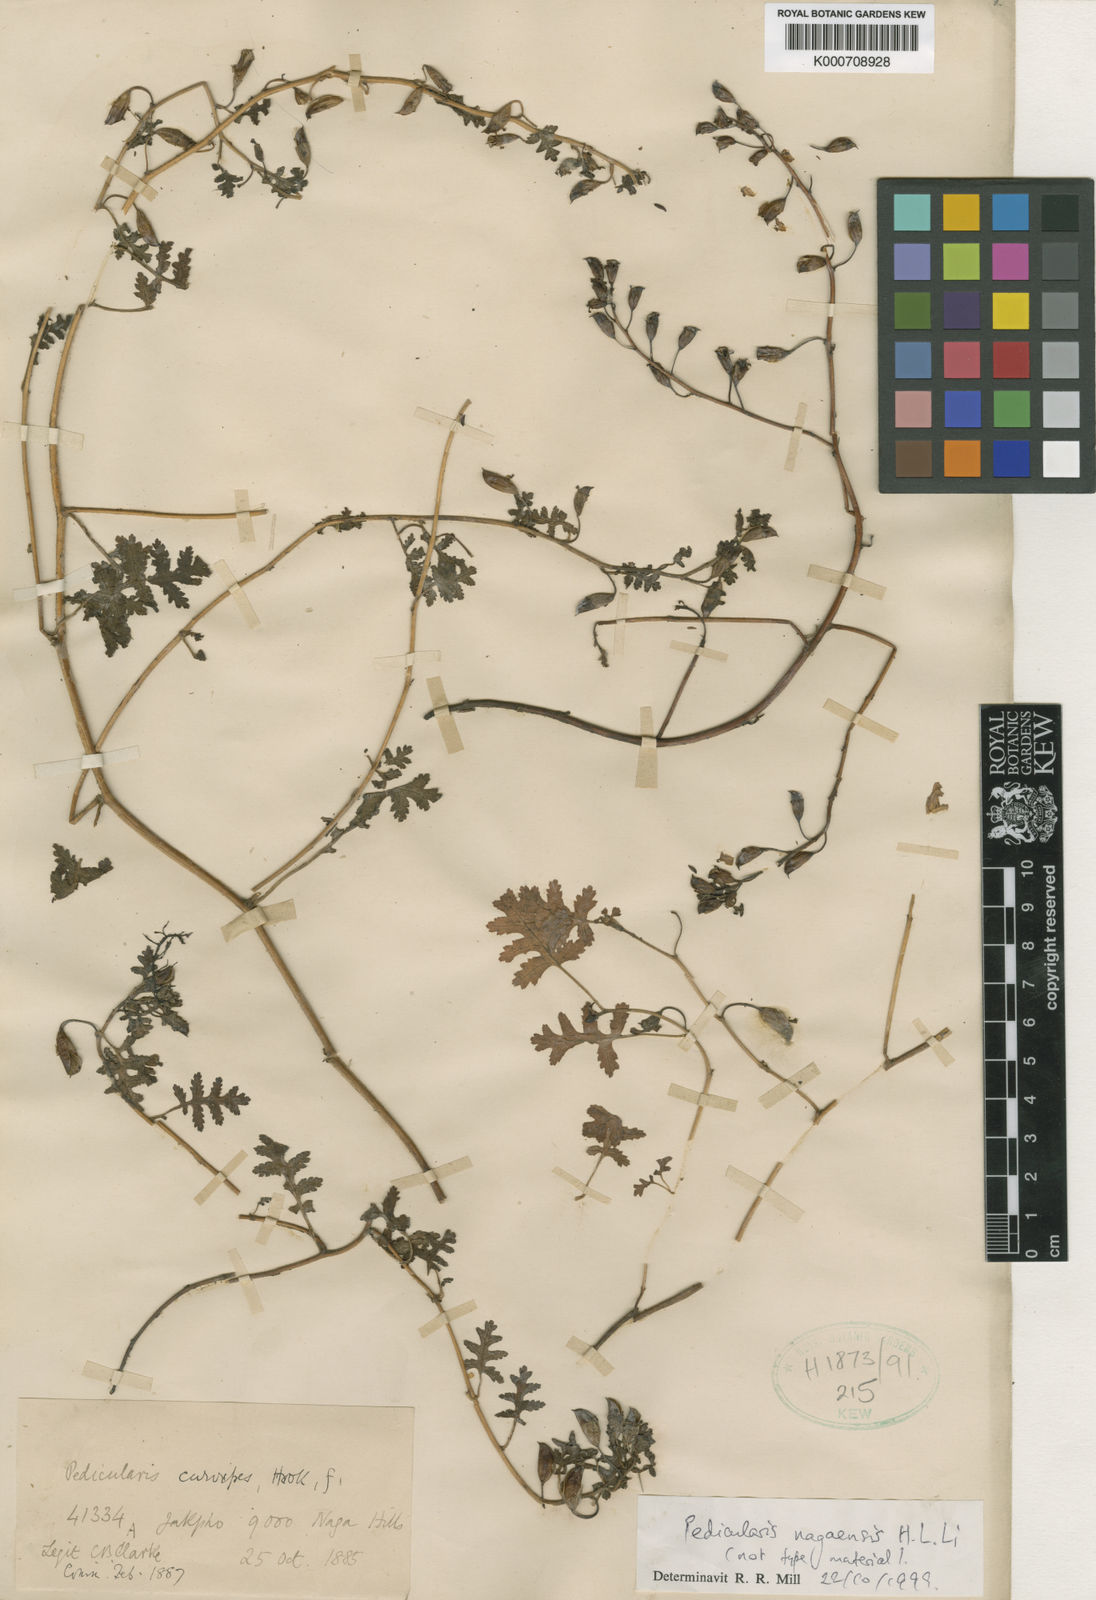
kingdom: Plantae
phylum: Tracheophyta
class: Magnoliopsida
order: Lamiales
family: Orobanchaceae
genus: Pedicularis
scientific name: Pedicularis curvipes
